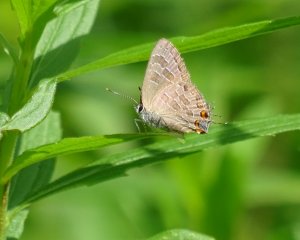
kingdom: Animalia
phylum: Arthropoda
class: Insecta
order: Lepidoptera
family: Lycaenidae
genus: Satyrium
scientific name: Satyrium liparops
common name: Striped Hairstreak
